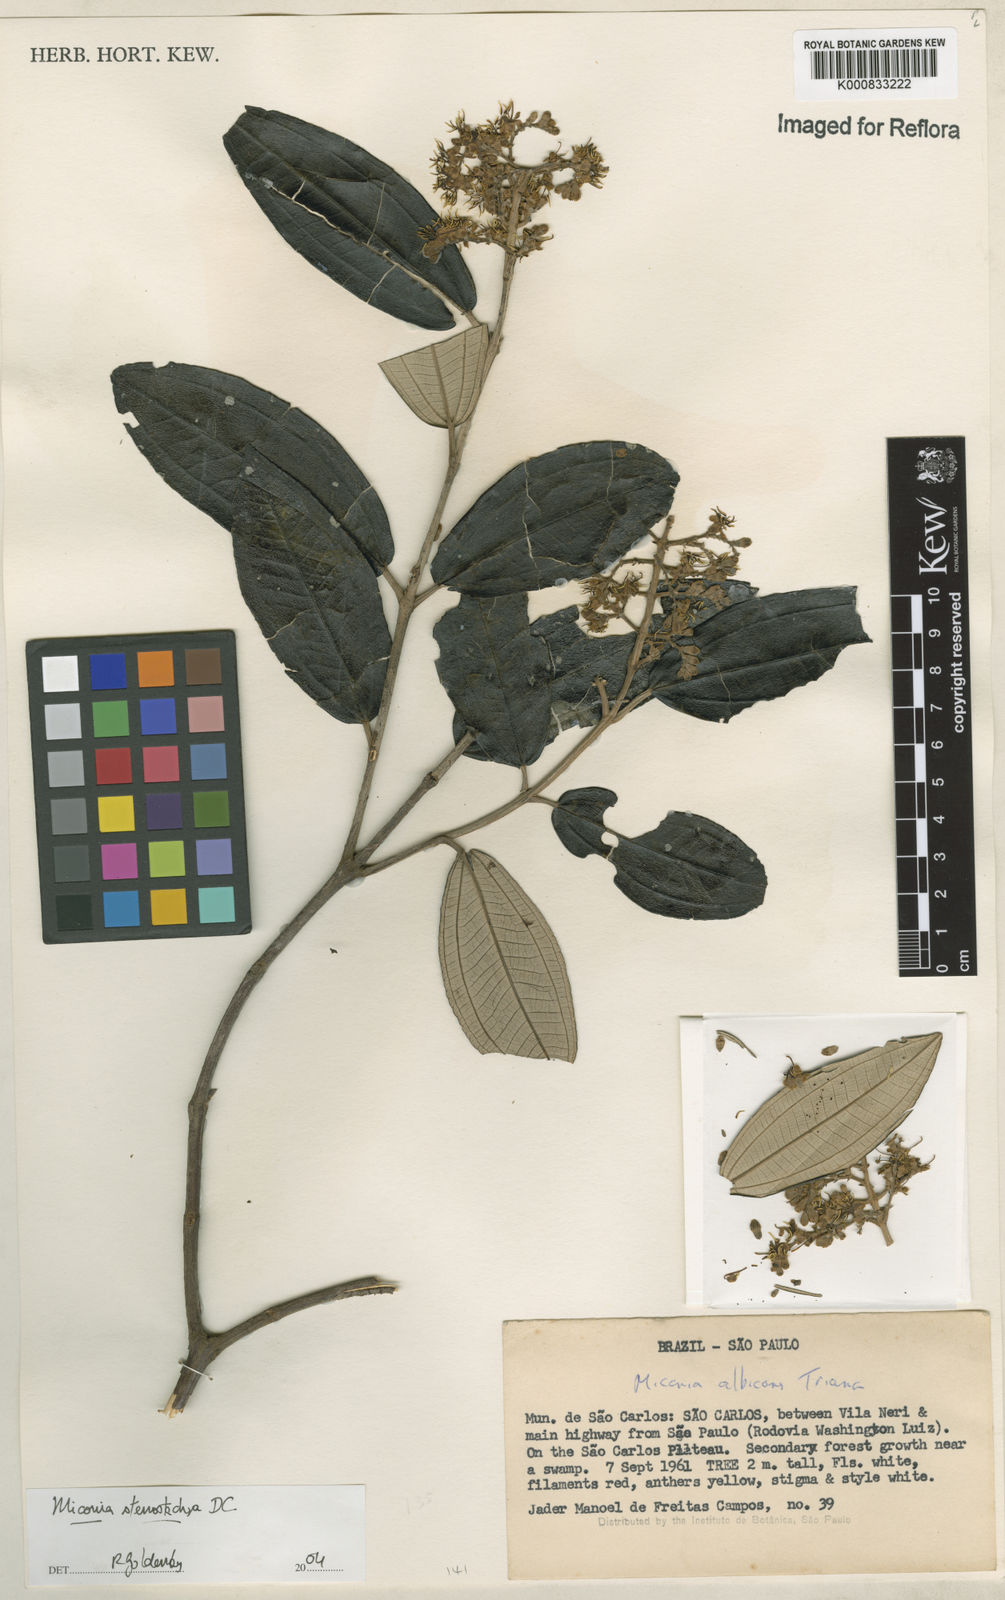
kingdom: Plantae
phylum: Tracheophyta
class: Magnoliopsida
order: Myrtales
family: Melastomataceae
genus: Miconia
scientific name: Miconia stenostachya
